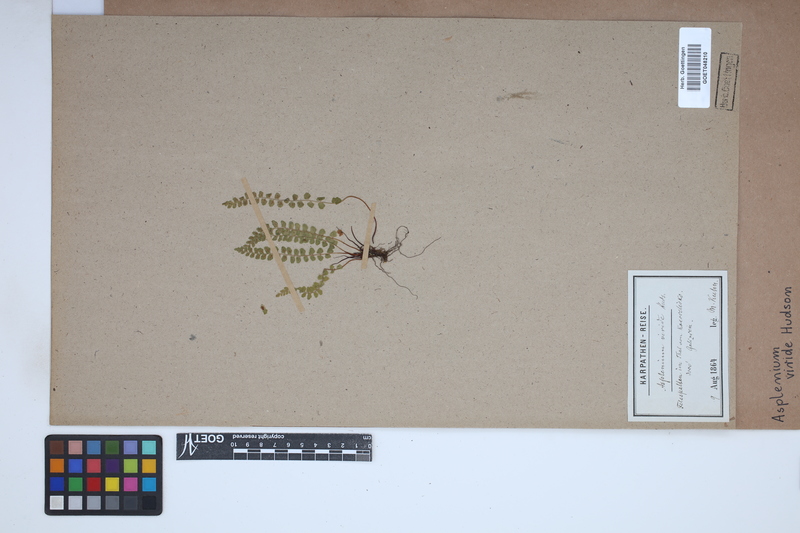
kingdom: Plantae
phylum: Tracheophyta
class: Polypodiopsida
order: Polypodiales
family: Aspleniaceae
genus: Asplenium
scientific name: Asplenium viride
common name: Green spleenwort
